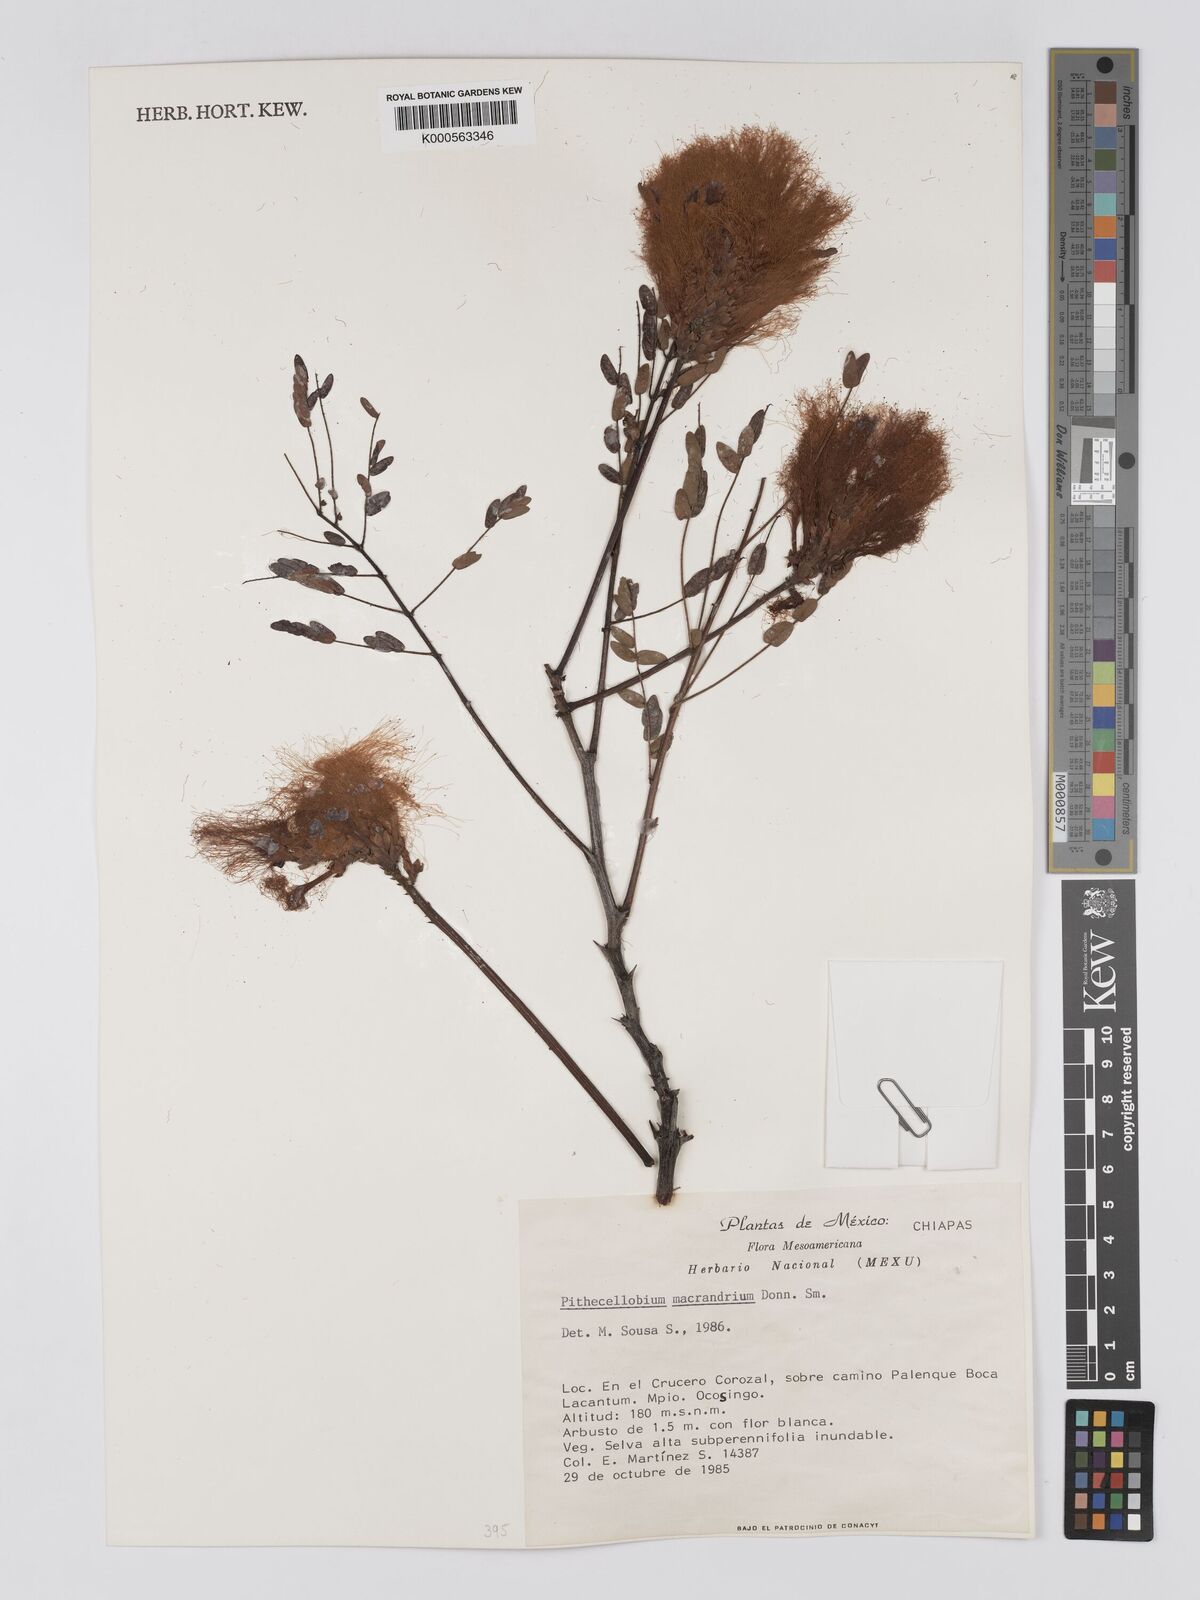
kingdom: Plantae
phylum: Tracheophyta
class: Magnoliopsida
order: Fabales
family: Fabaceae
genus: Pithecellobium
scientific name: Pithecellobium macrandrium
